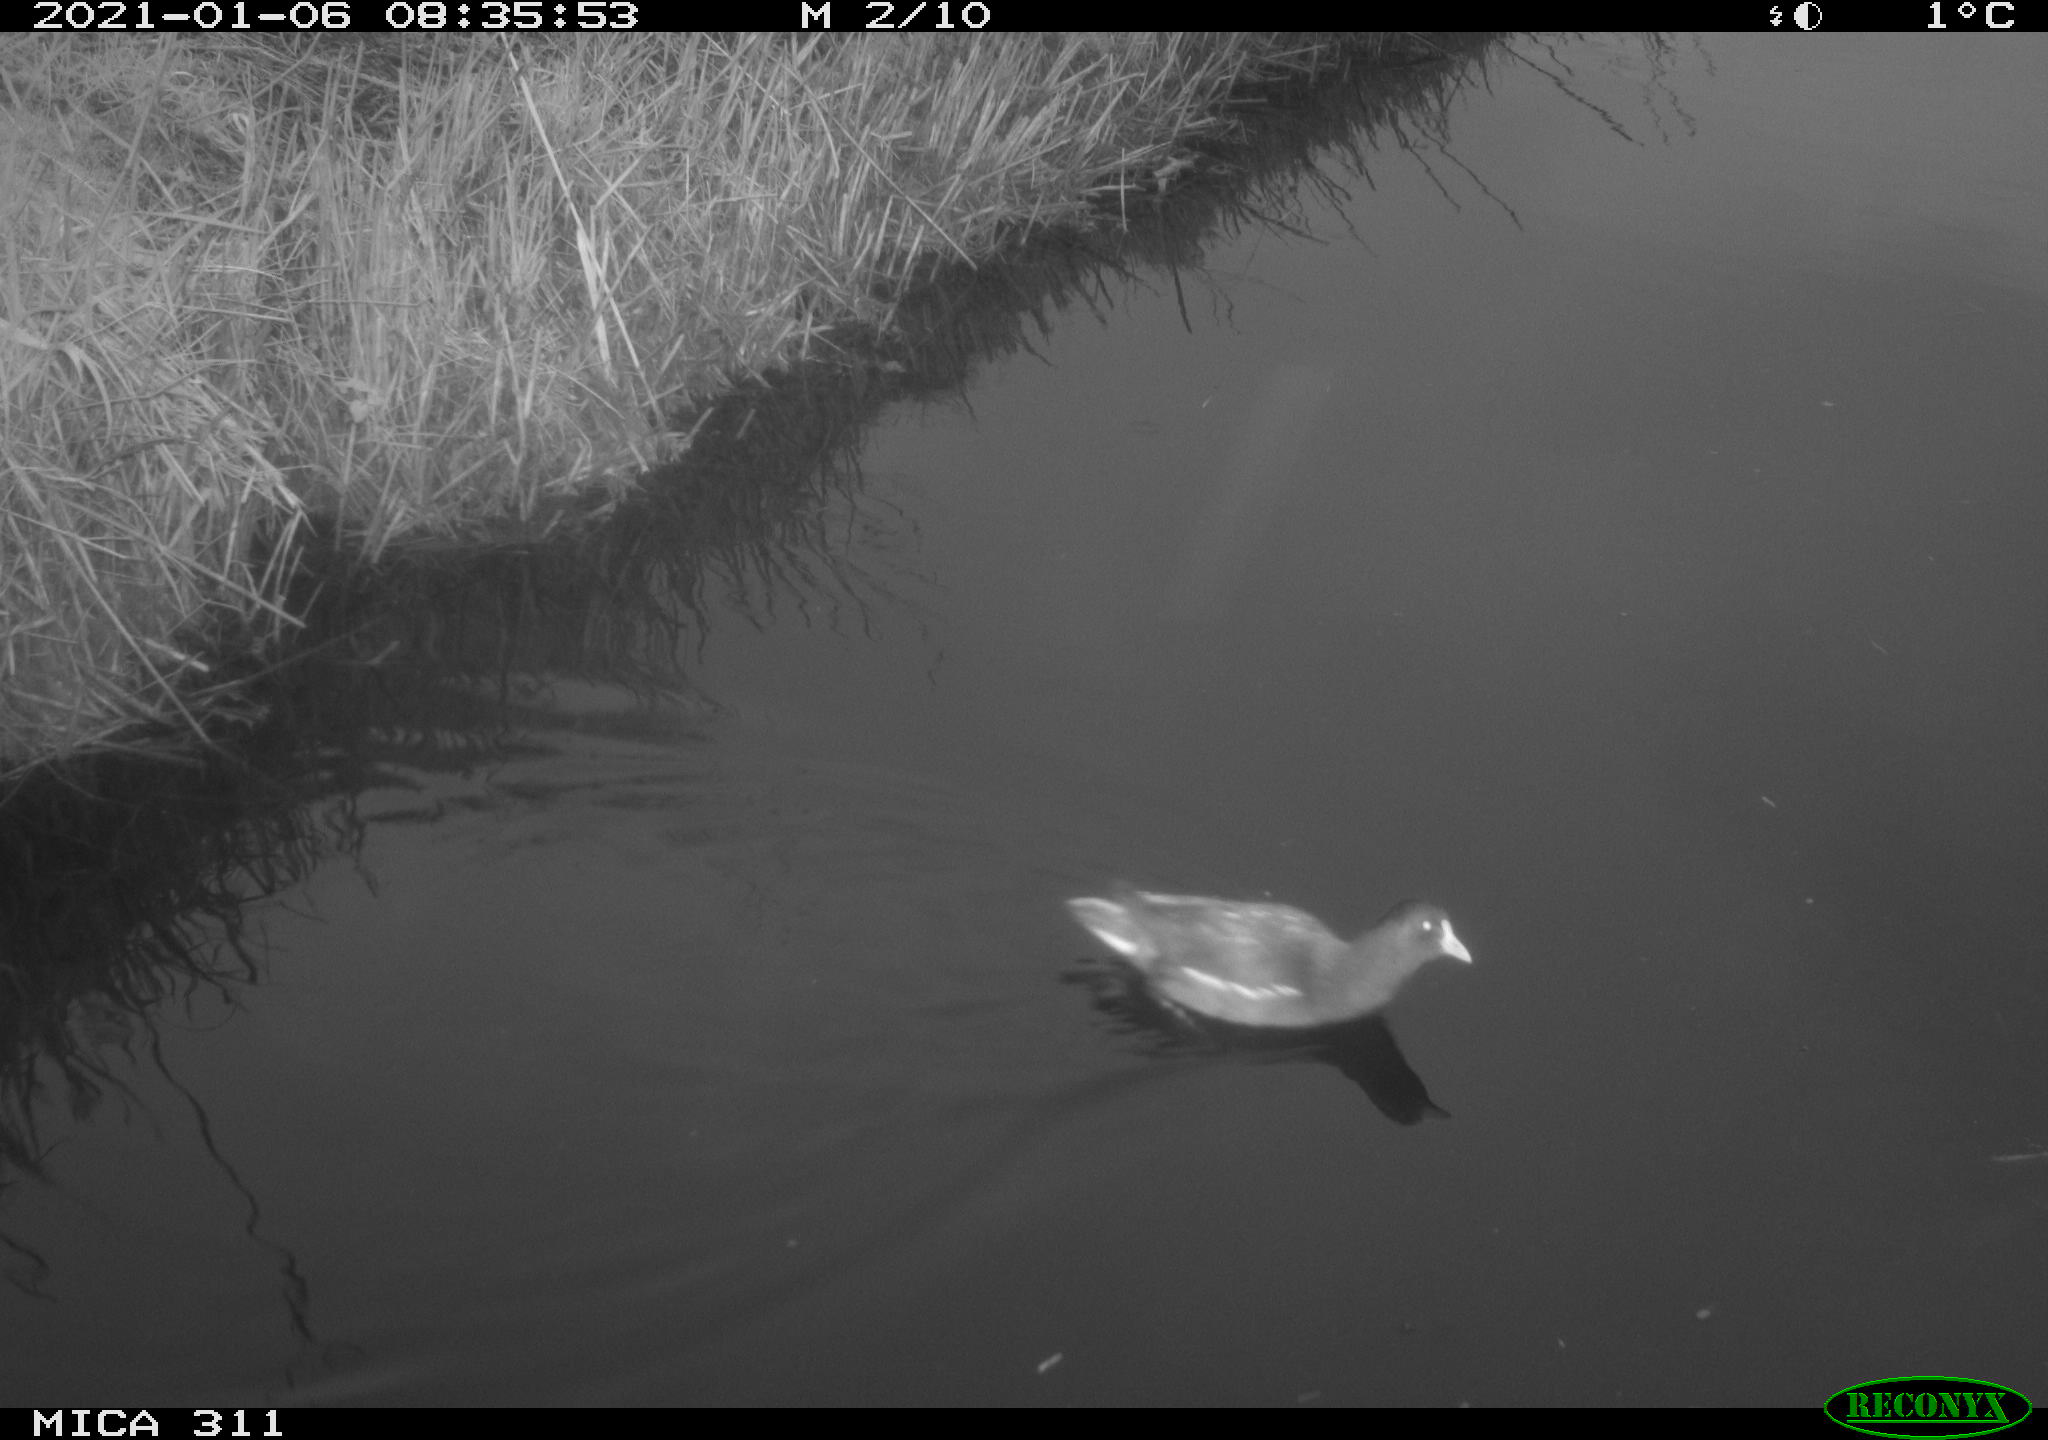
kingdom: Animalia
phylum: Chordata
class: Aves
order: Gruiformes
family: Rallidae
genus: Gallinula
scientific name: Gallinula chloropus
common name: Common moorhen
